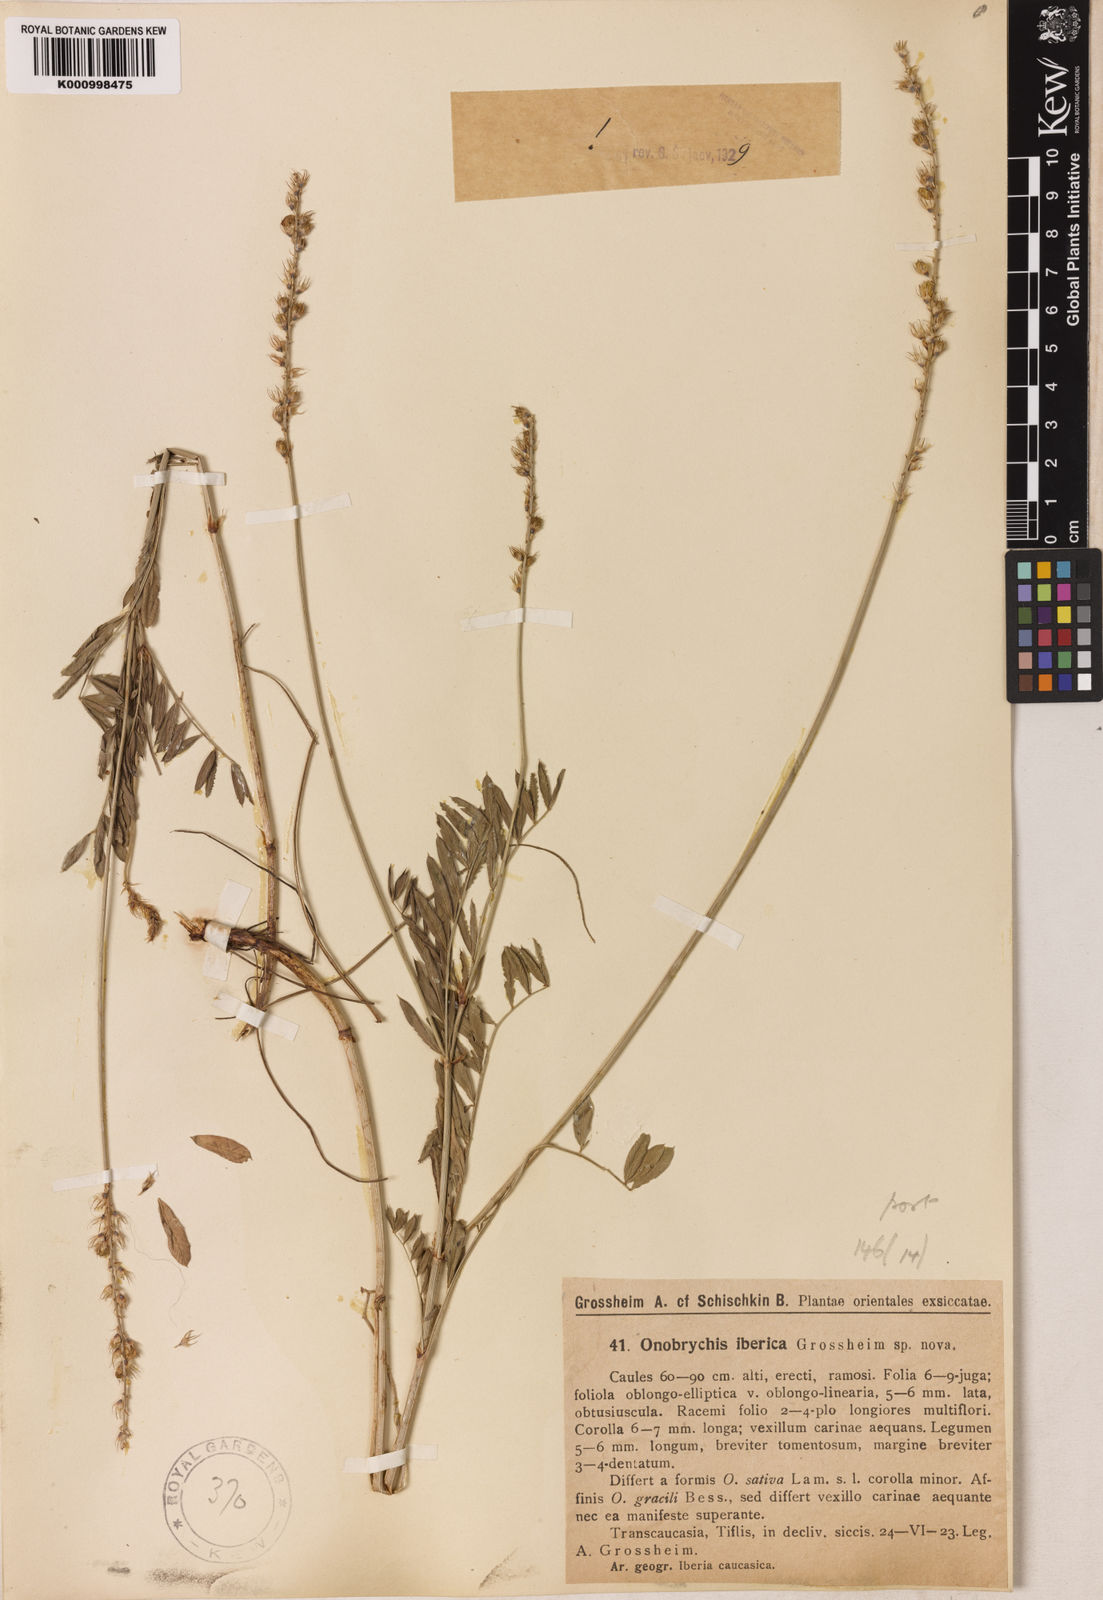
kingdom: Plantae
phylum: Tracheophyta
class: Magnoliopsida
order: Fabales
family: Fabaceae
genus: Onobrychis
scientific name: Onobrychis iberica
